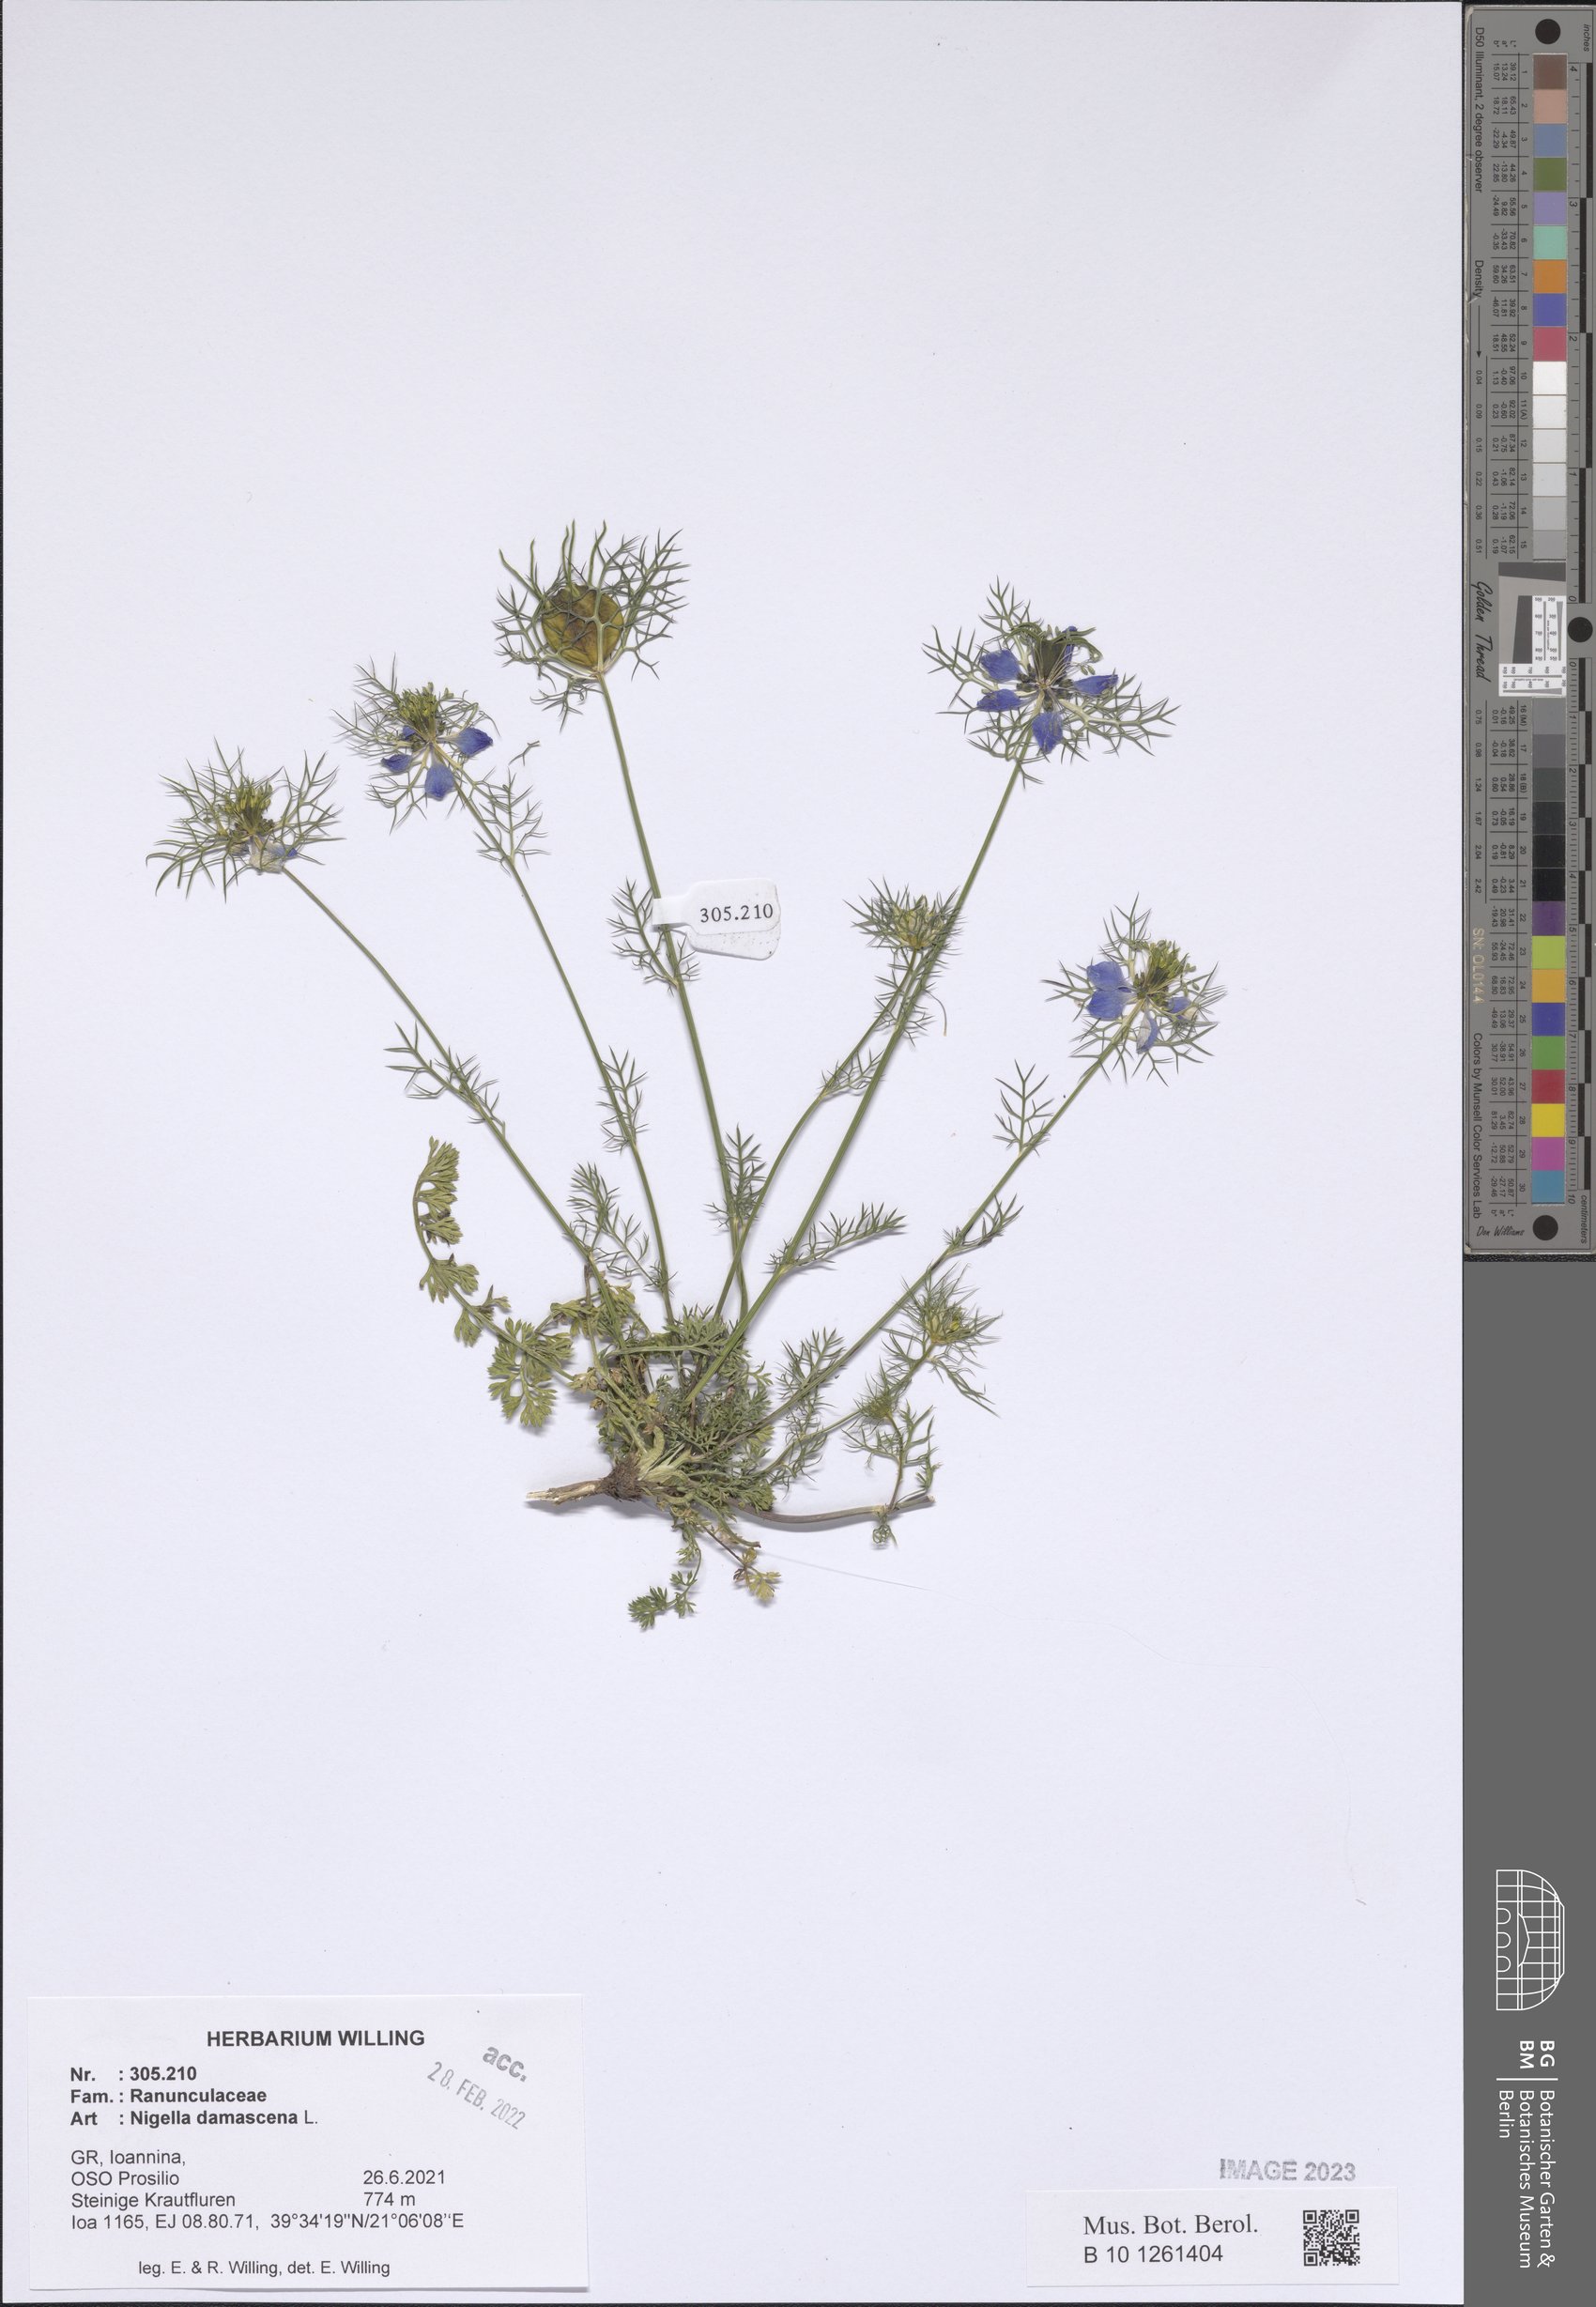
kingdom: Plantae
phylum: Tracheophyta
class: Magnoliopsida
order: Ranunculales
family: Ranunculaceae
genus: Nigella
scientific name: Nigella damascena
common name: Love-in-a-mist
